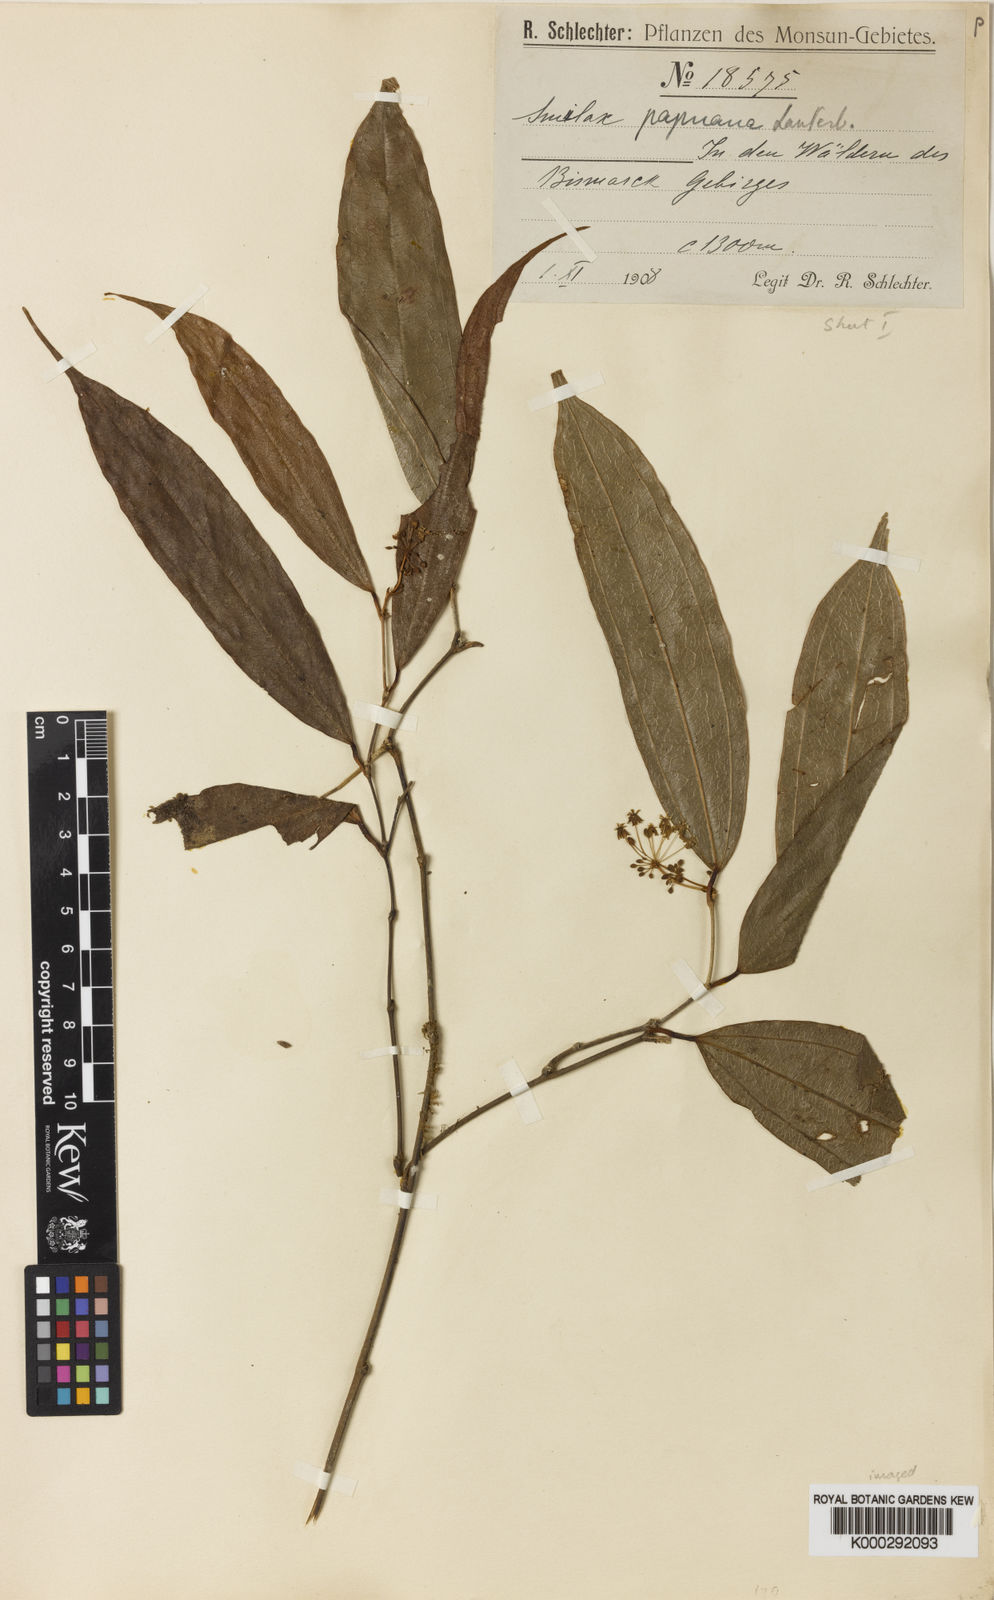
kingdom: Plantae
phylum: Tracheophyta
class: Liliopsida
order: Liliales
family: Smilacaceae
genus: Smilax
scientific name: Smilax papuana
